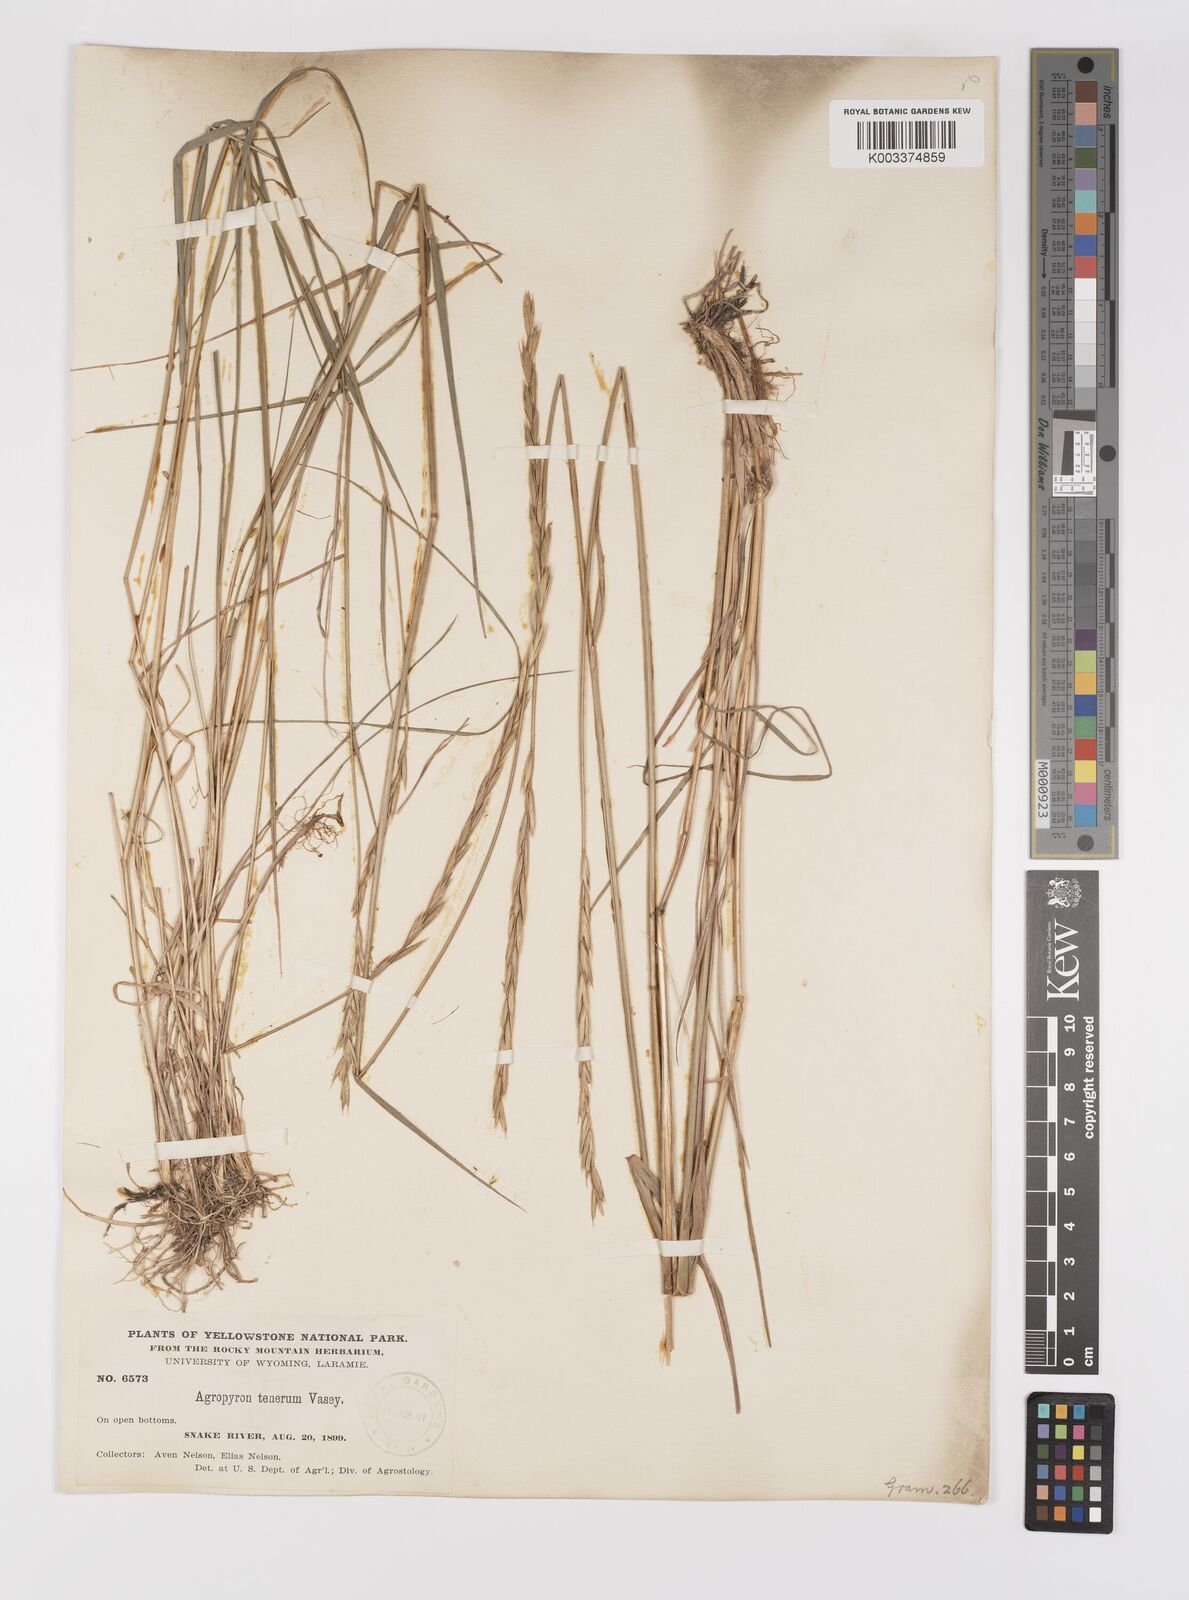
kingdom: Plantae
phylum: Tracheophyta
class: Liliopsida
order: Poales
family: Poaceae
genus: Elymus
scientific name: Elymus violaceus
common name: Arctic wheatgrass
